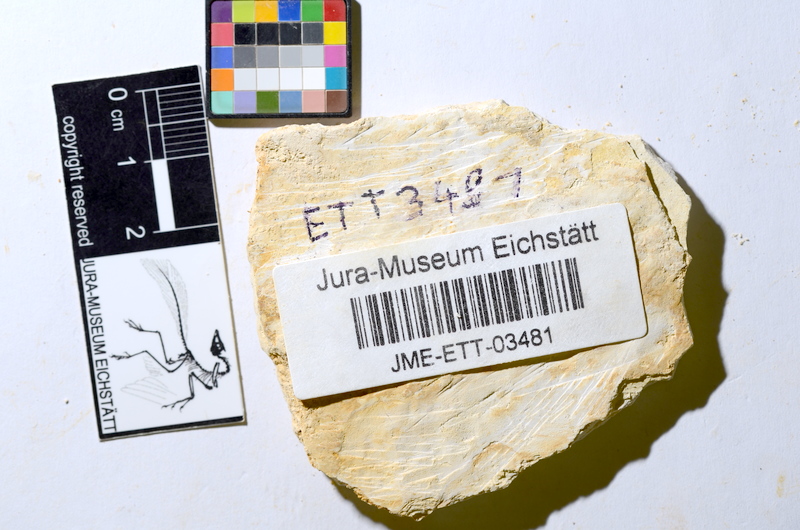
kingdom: Animalia
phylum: Chordata
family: Ascalaboidae
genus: Ebertichthys
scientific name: Ebertichthys ettlingensis
